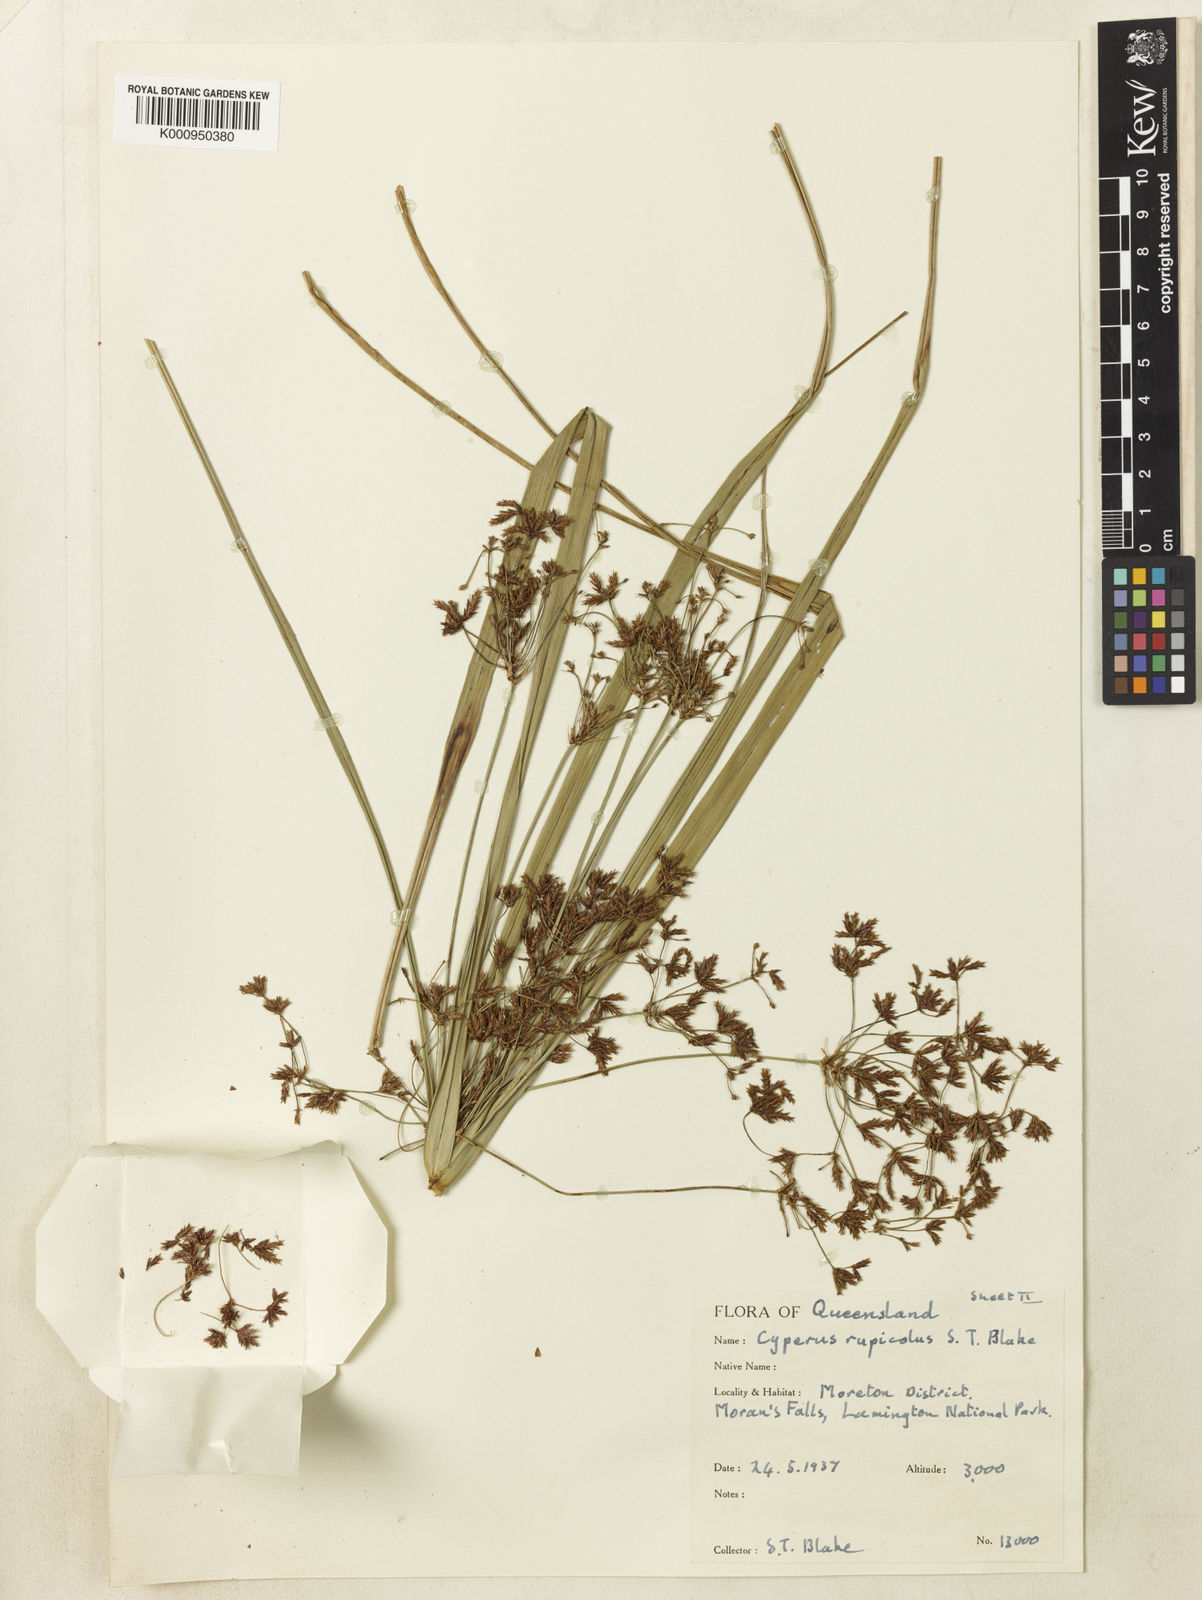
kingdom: Plantae
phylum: Tracheophyta
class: Liliopsida
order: Poales
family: Cyperaceae
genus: Cyperus
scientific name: Cyperus rupicola
